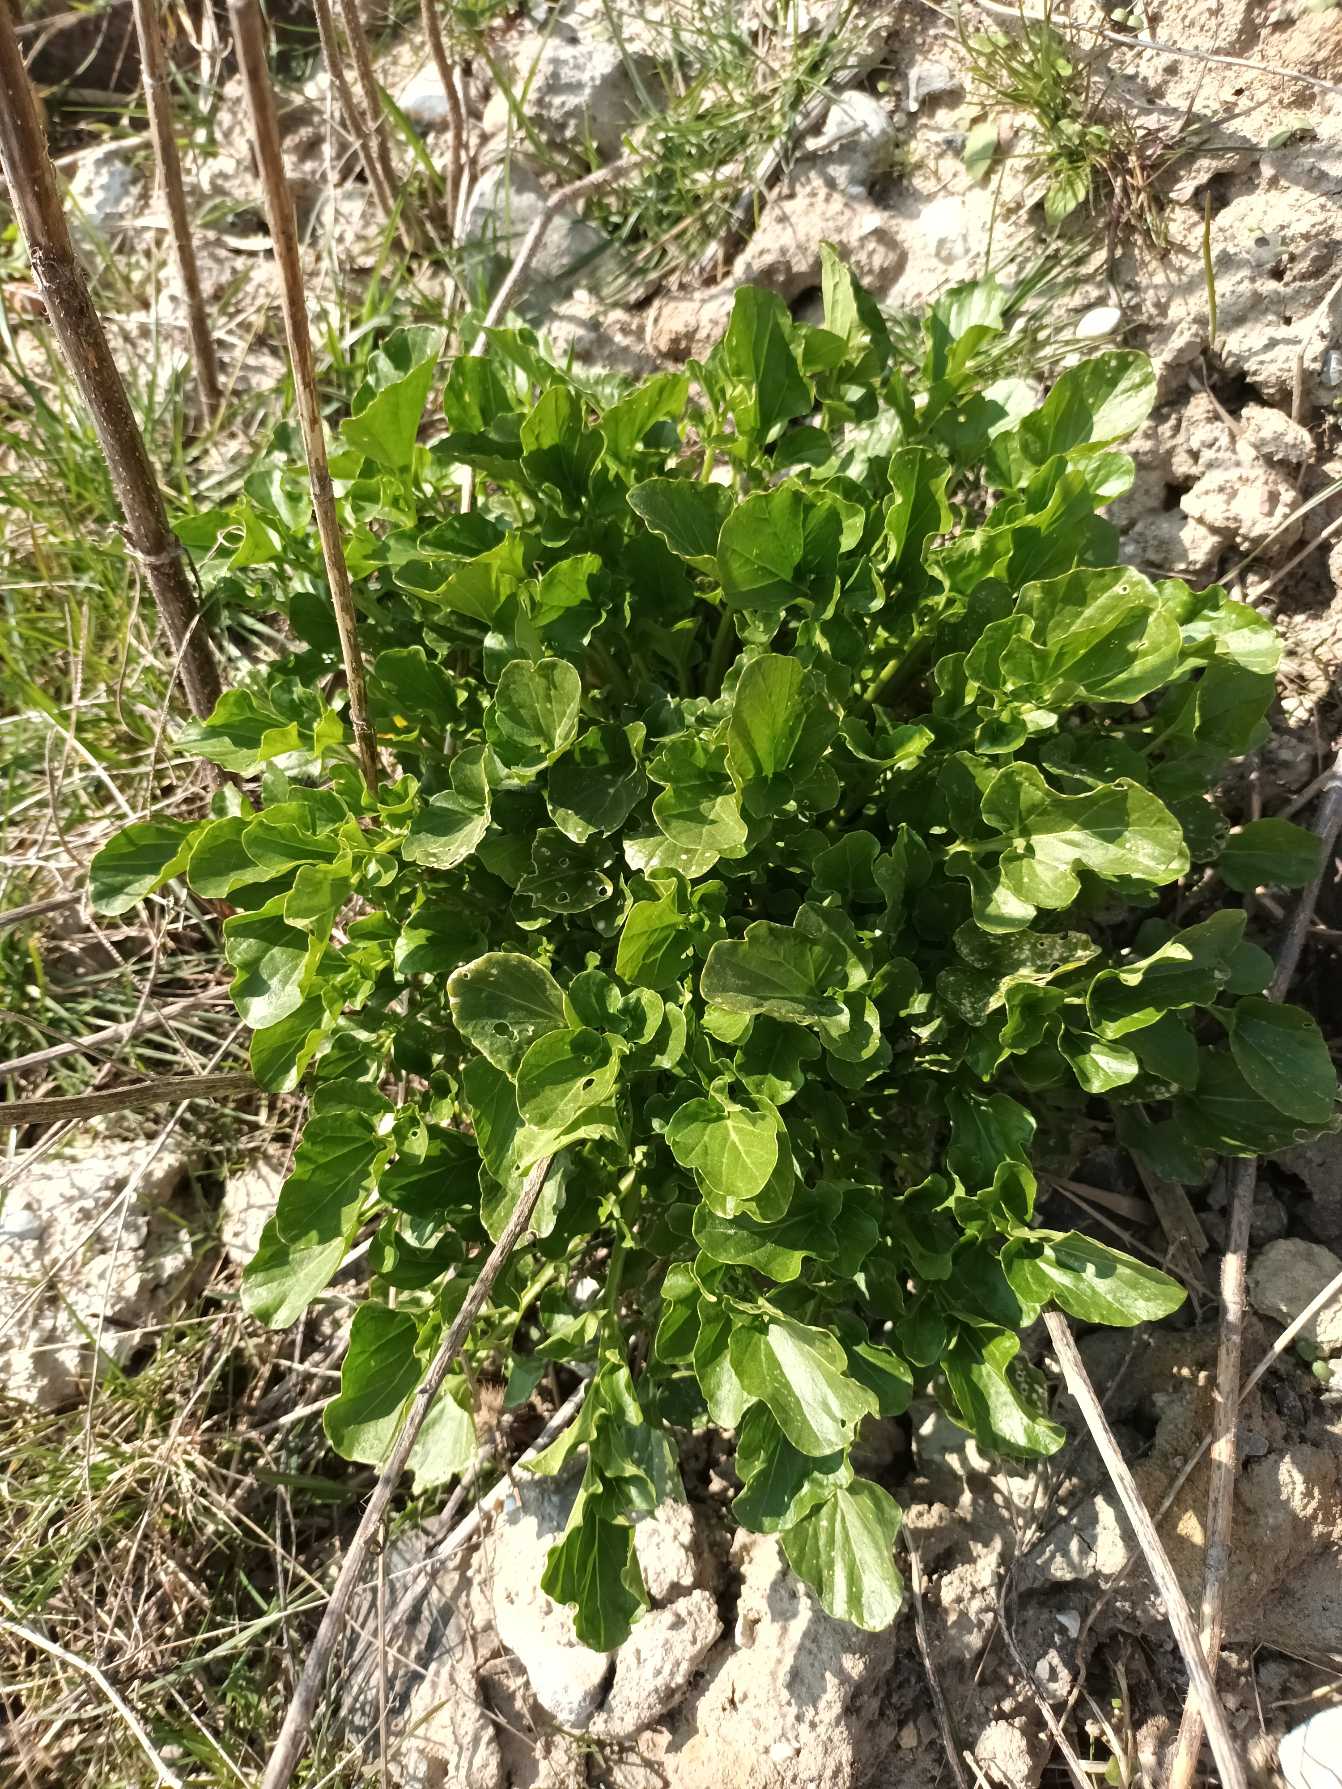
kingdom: Plantae
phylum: Tracheophyta
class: Magnoliopsida
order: Brassicales
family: Brassicaceae
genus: Barbarea
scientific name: Barbarea vulgaris
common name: Udspærret vinterkarse
